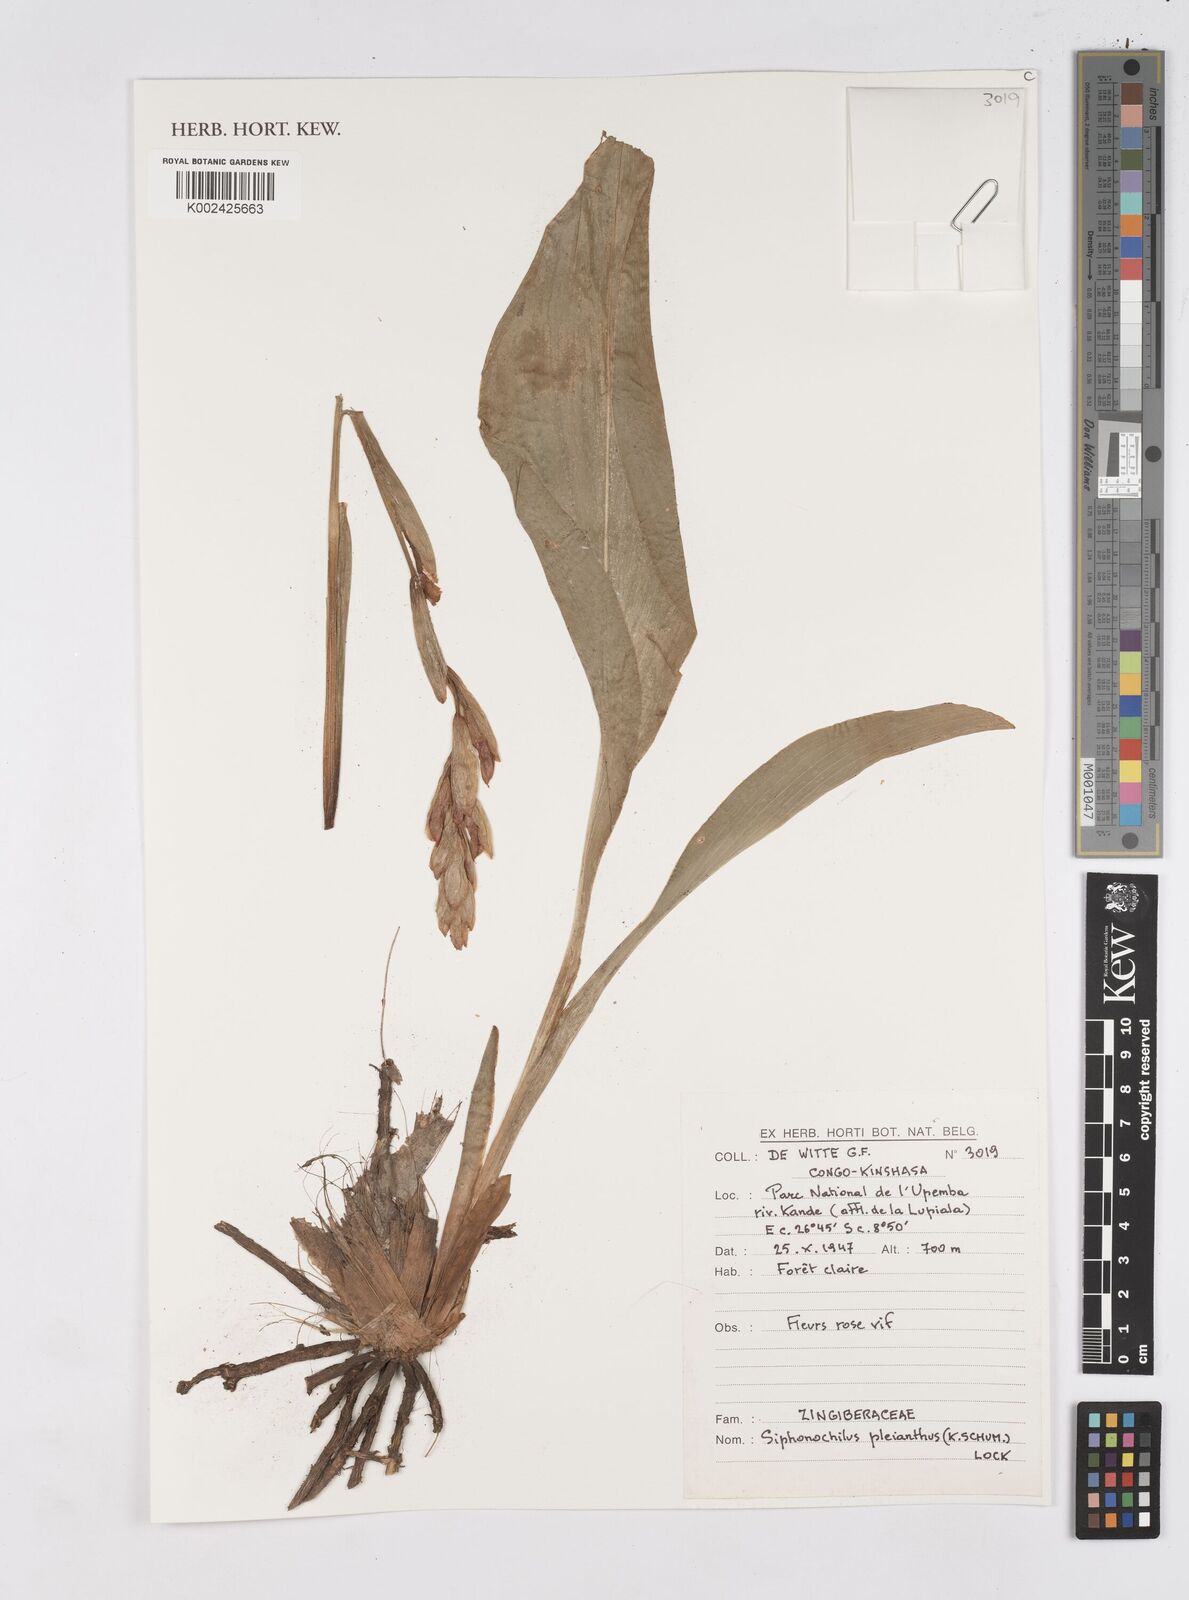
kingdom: Plantae
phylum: Tracheophyta
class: Liliopsida
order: Zingiberales
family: Zingiberaceae
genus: Siphonochilus
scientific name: Siphonochilus pleianthus
